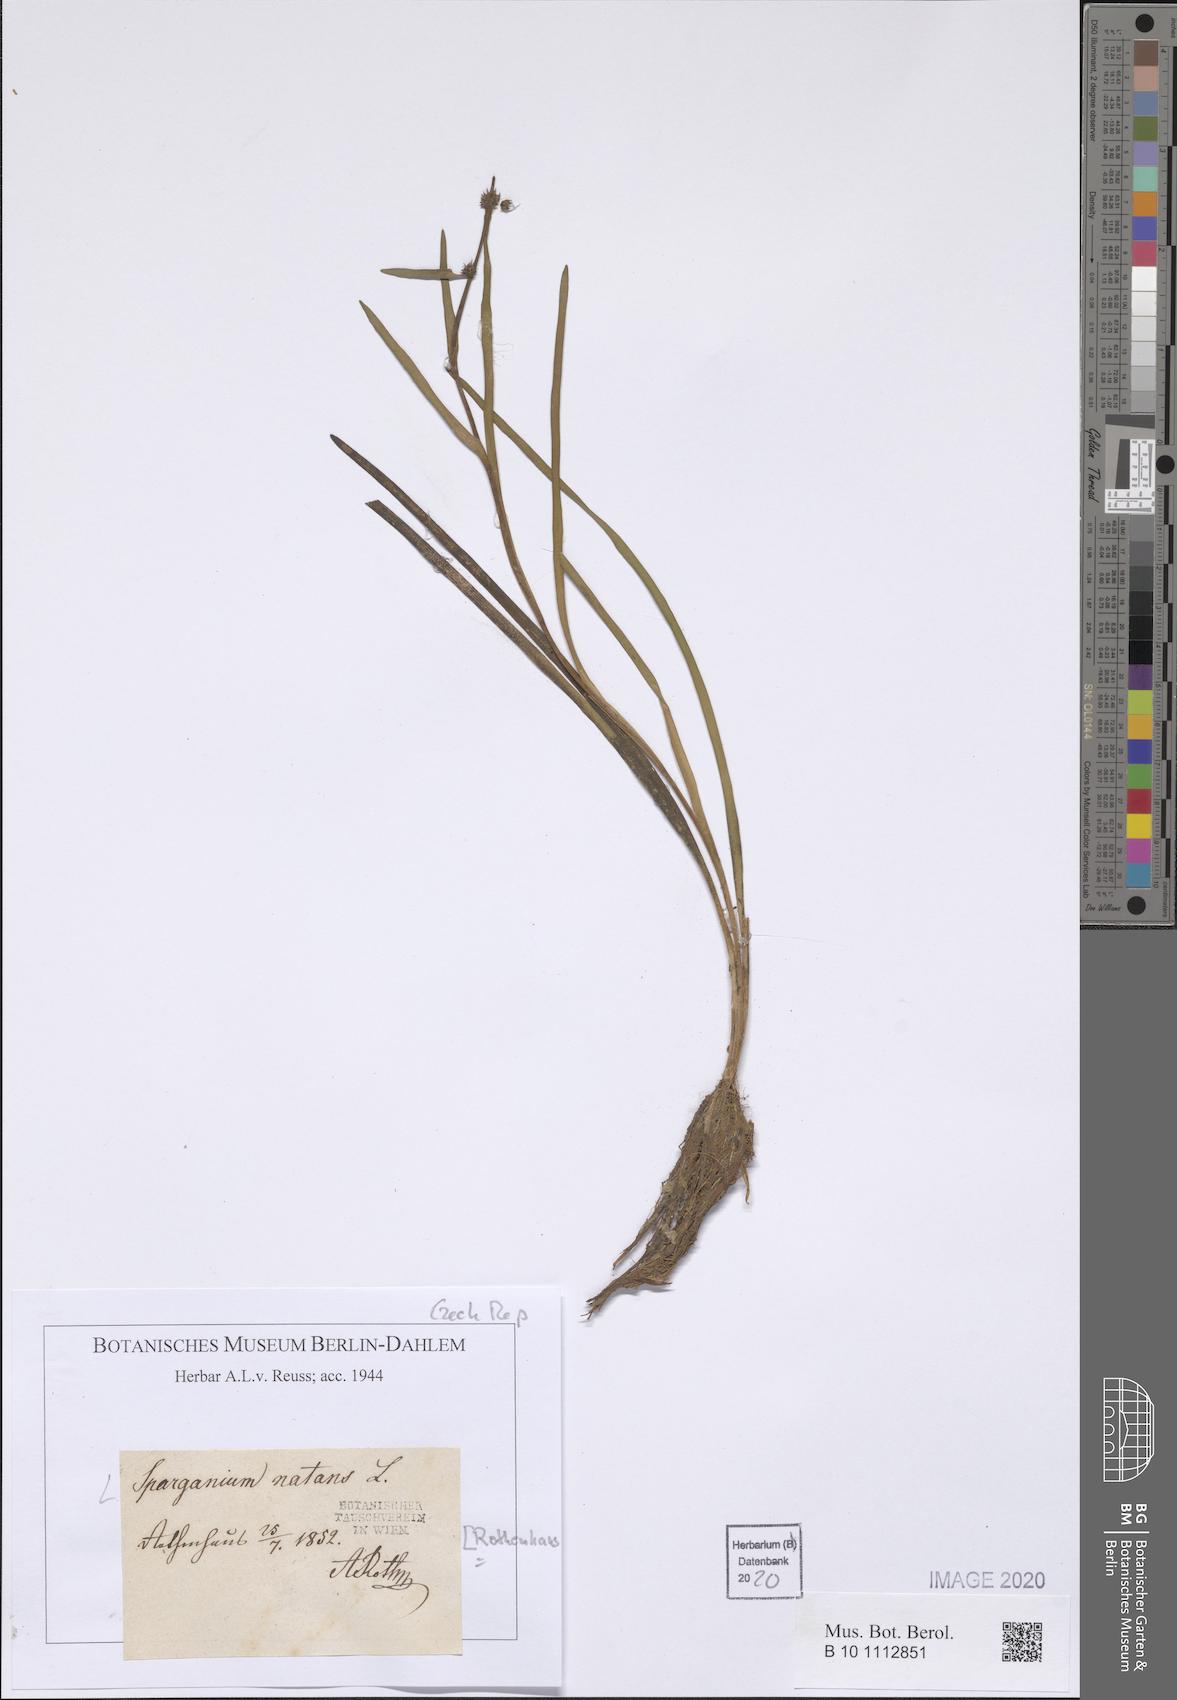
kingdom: Plantae
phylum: Tracheophyta
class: Liliopsida
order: Poales
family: Typhaceae
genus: Sparganium
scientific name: Sparganium natans
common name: Least bur-reed
